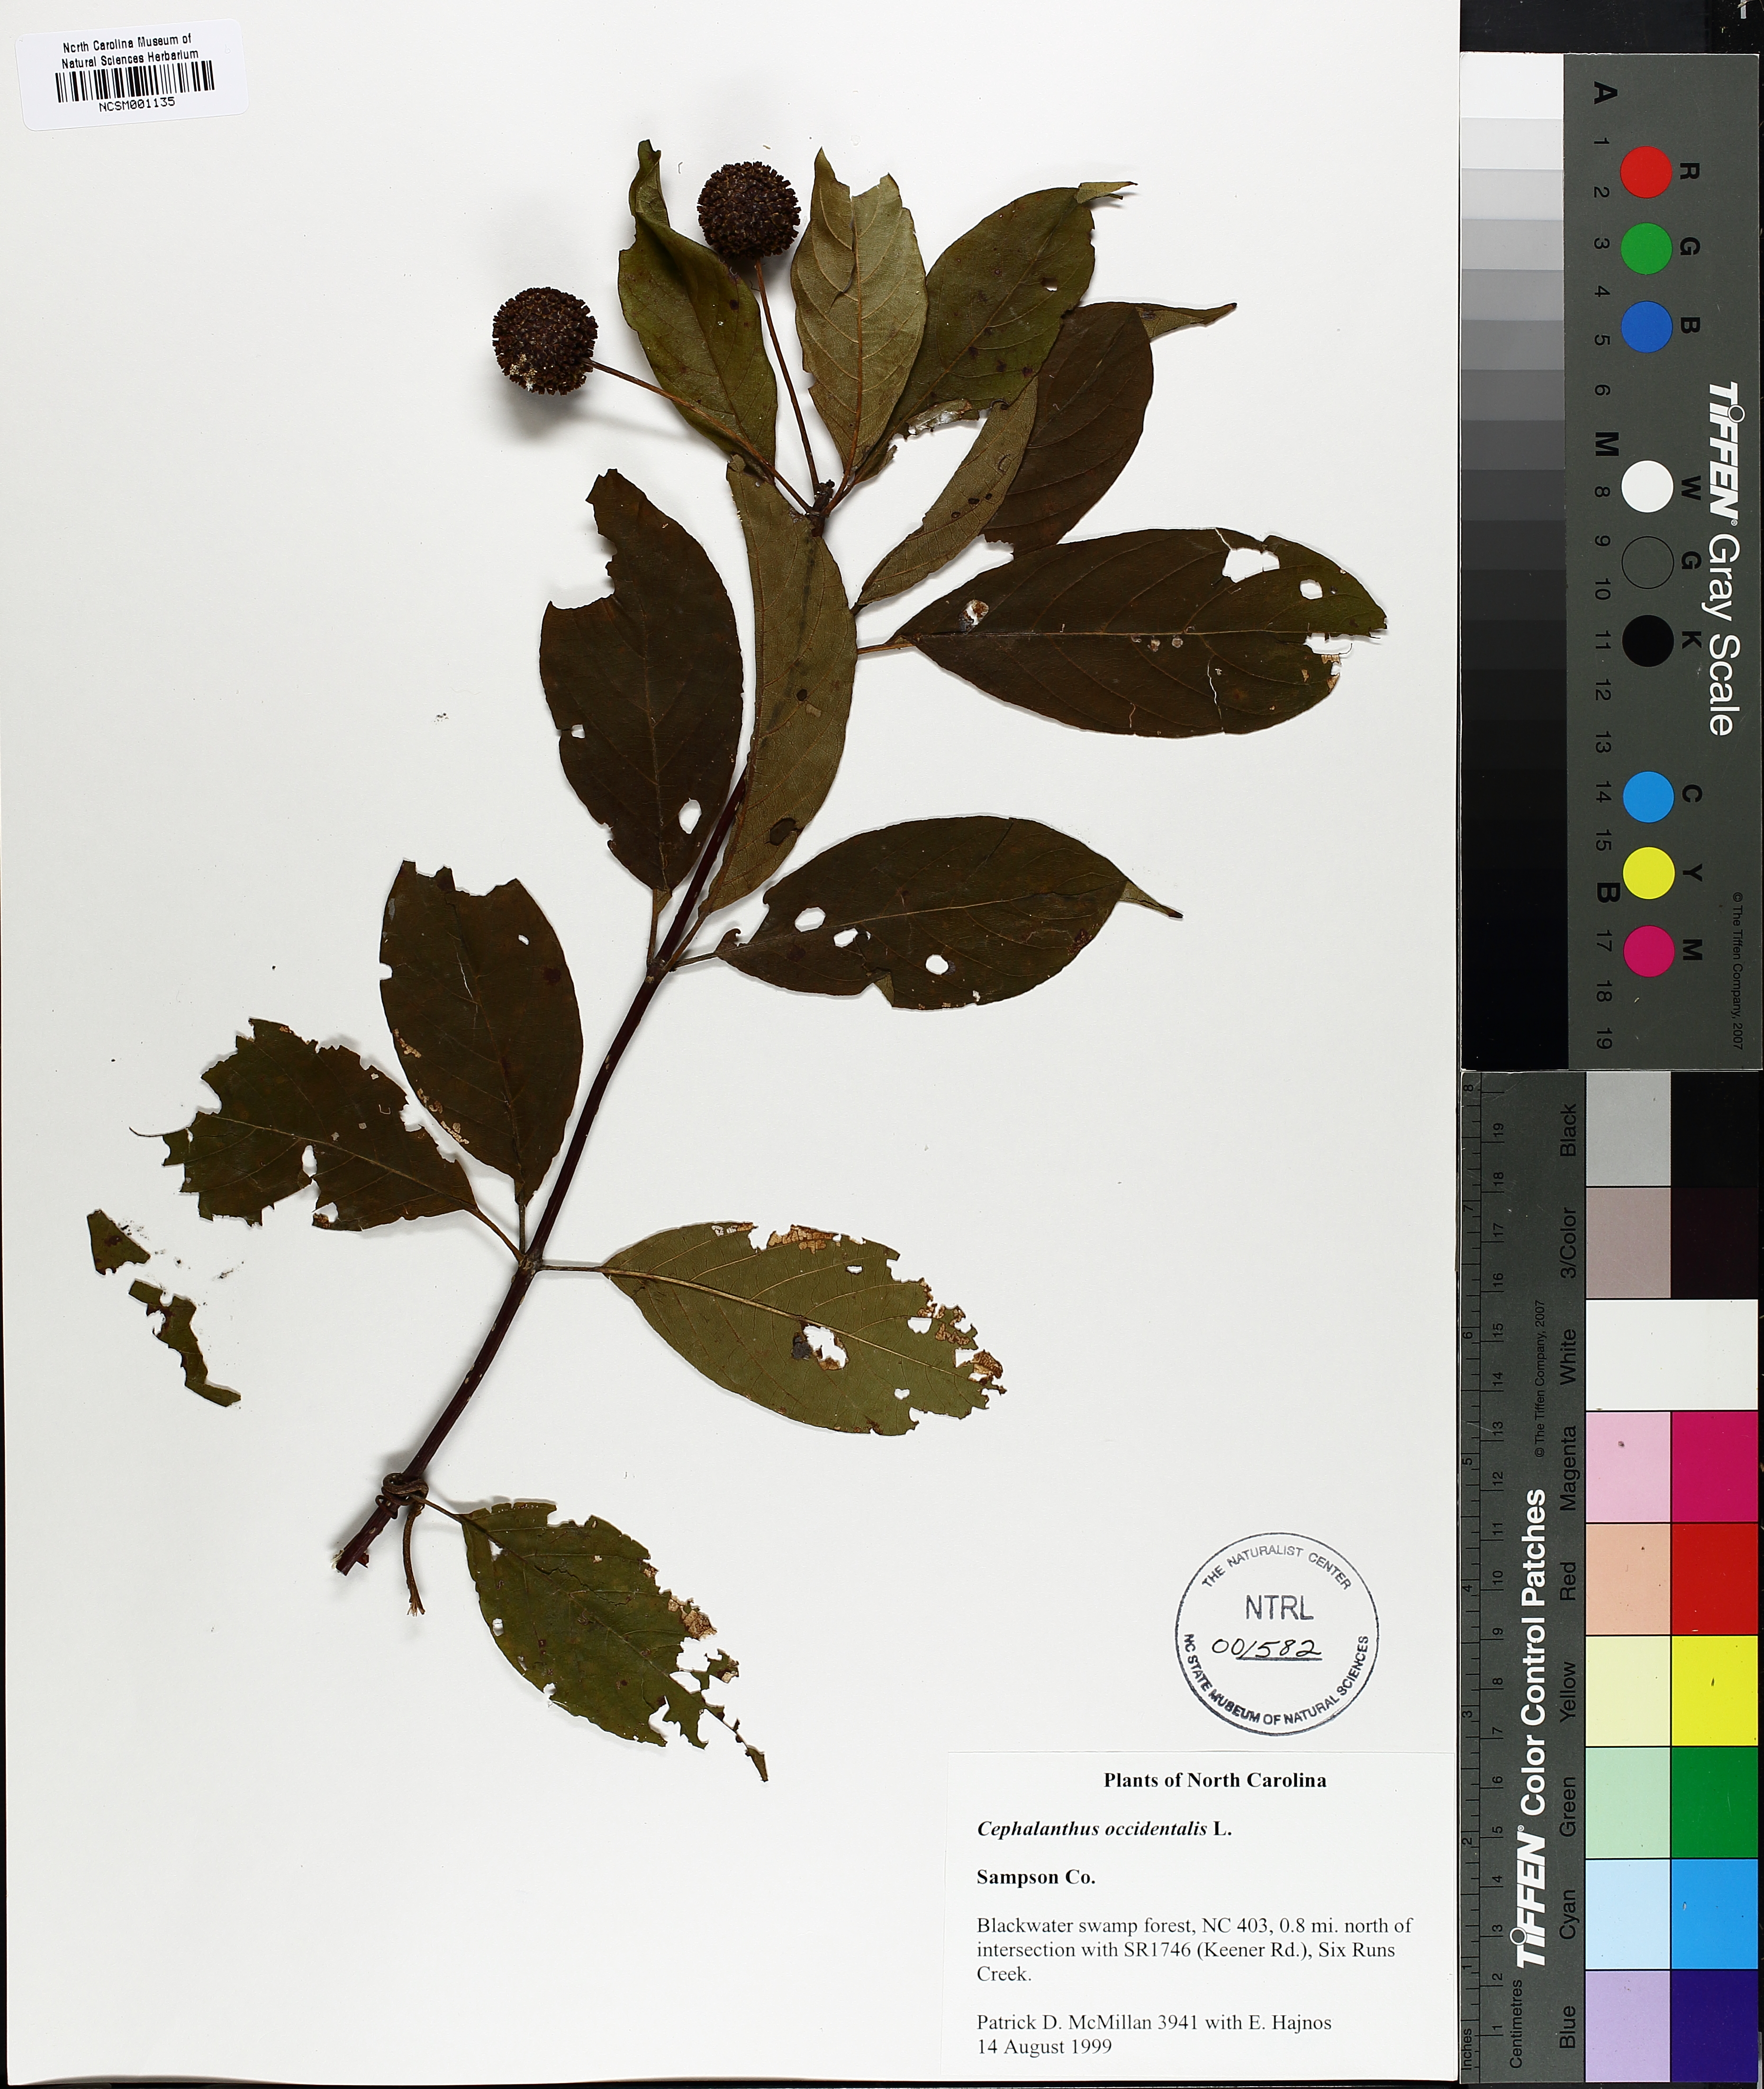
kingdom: Plantae
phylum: Tracheophyta
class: Magnoliopsida
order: Gentianales
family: Rubiaceae
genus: Cephalanthus
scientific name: Cephalanthus occidentalis
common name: Button-willow
